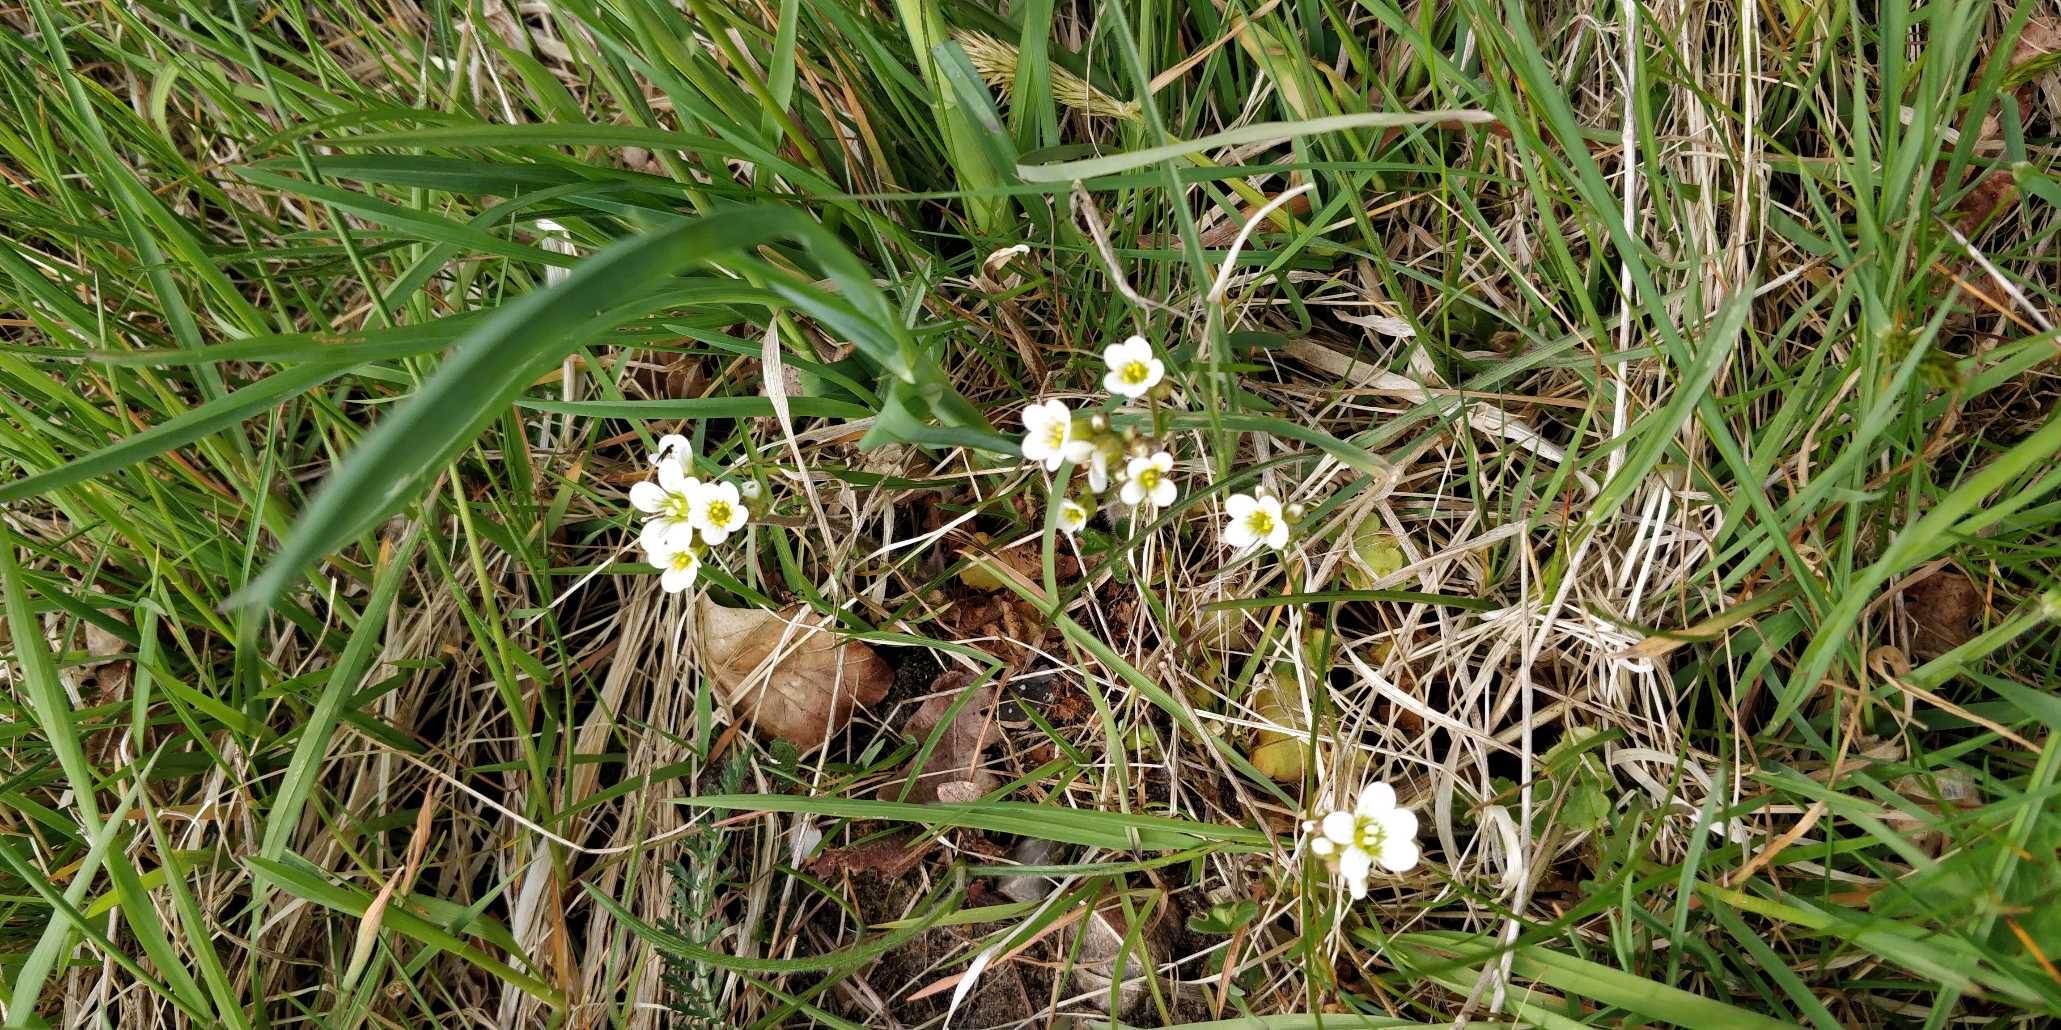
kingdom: Plantae
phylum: Tracheophyta
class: Magnoliopsida
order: Saxifragales
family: Saxifragaceae
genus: Saxifraga
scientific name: Saxifraga granulata
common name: Kornet stenbræk
